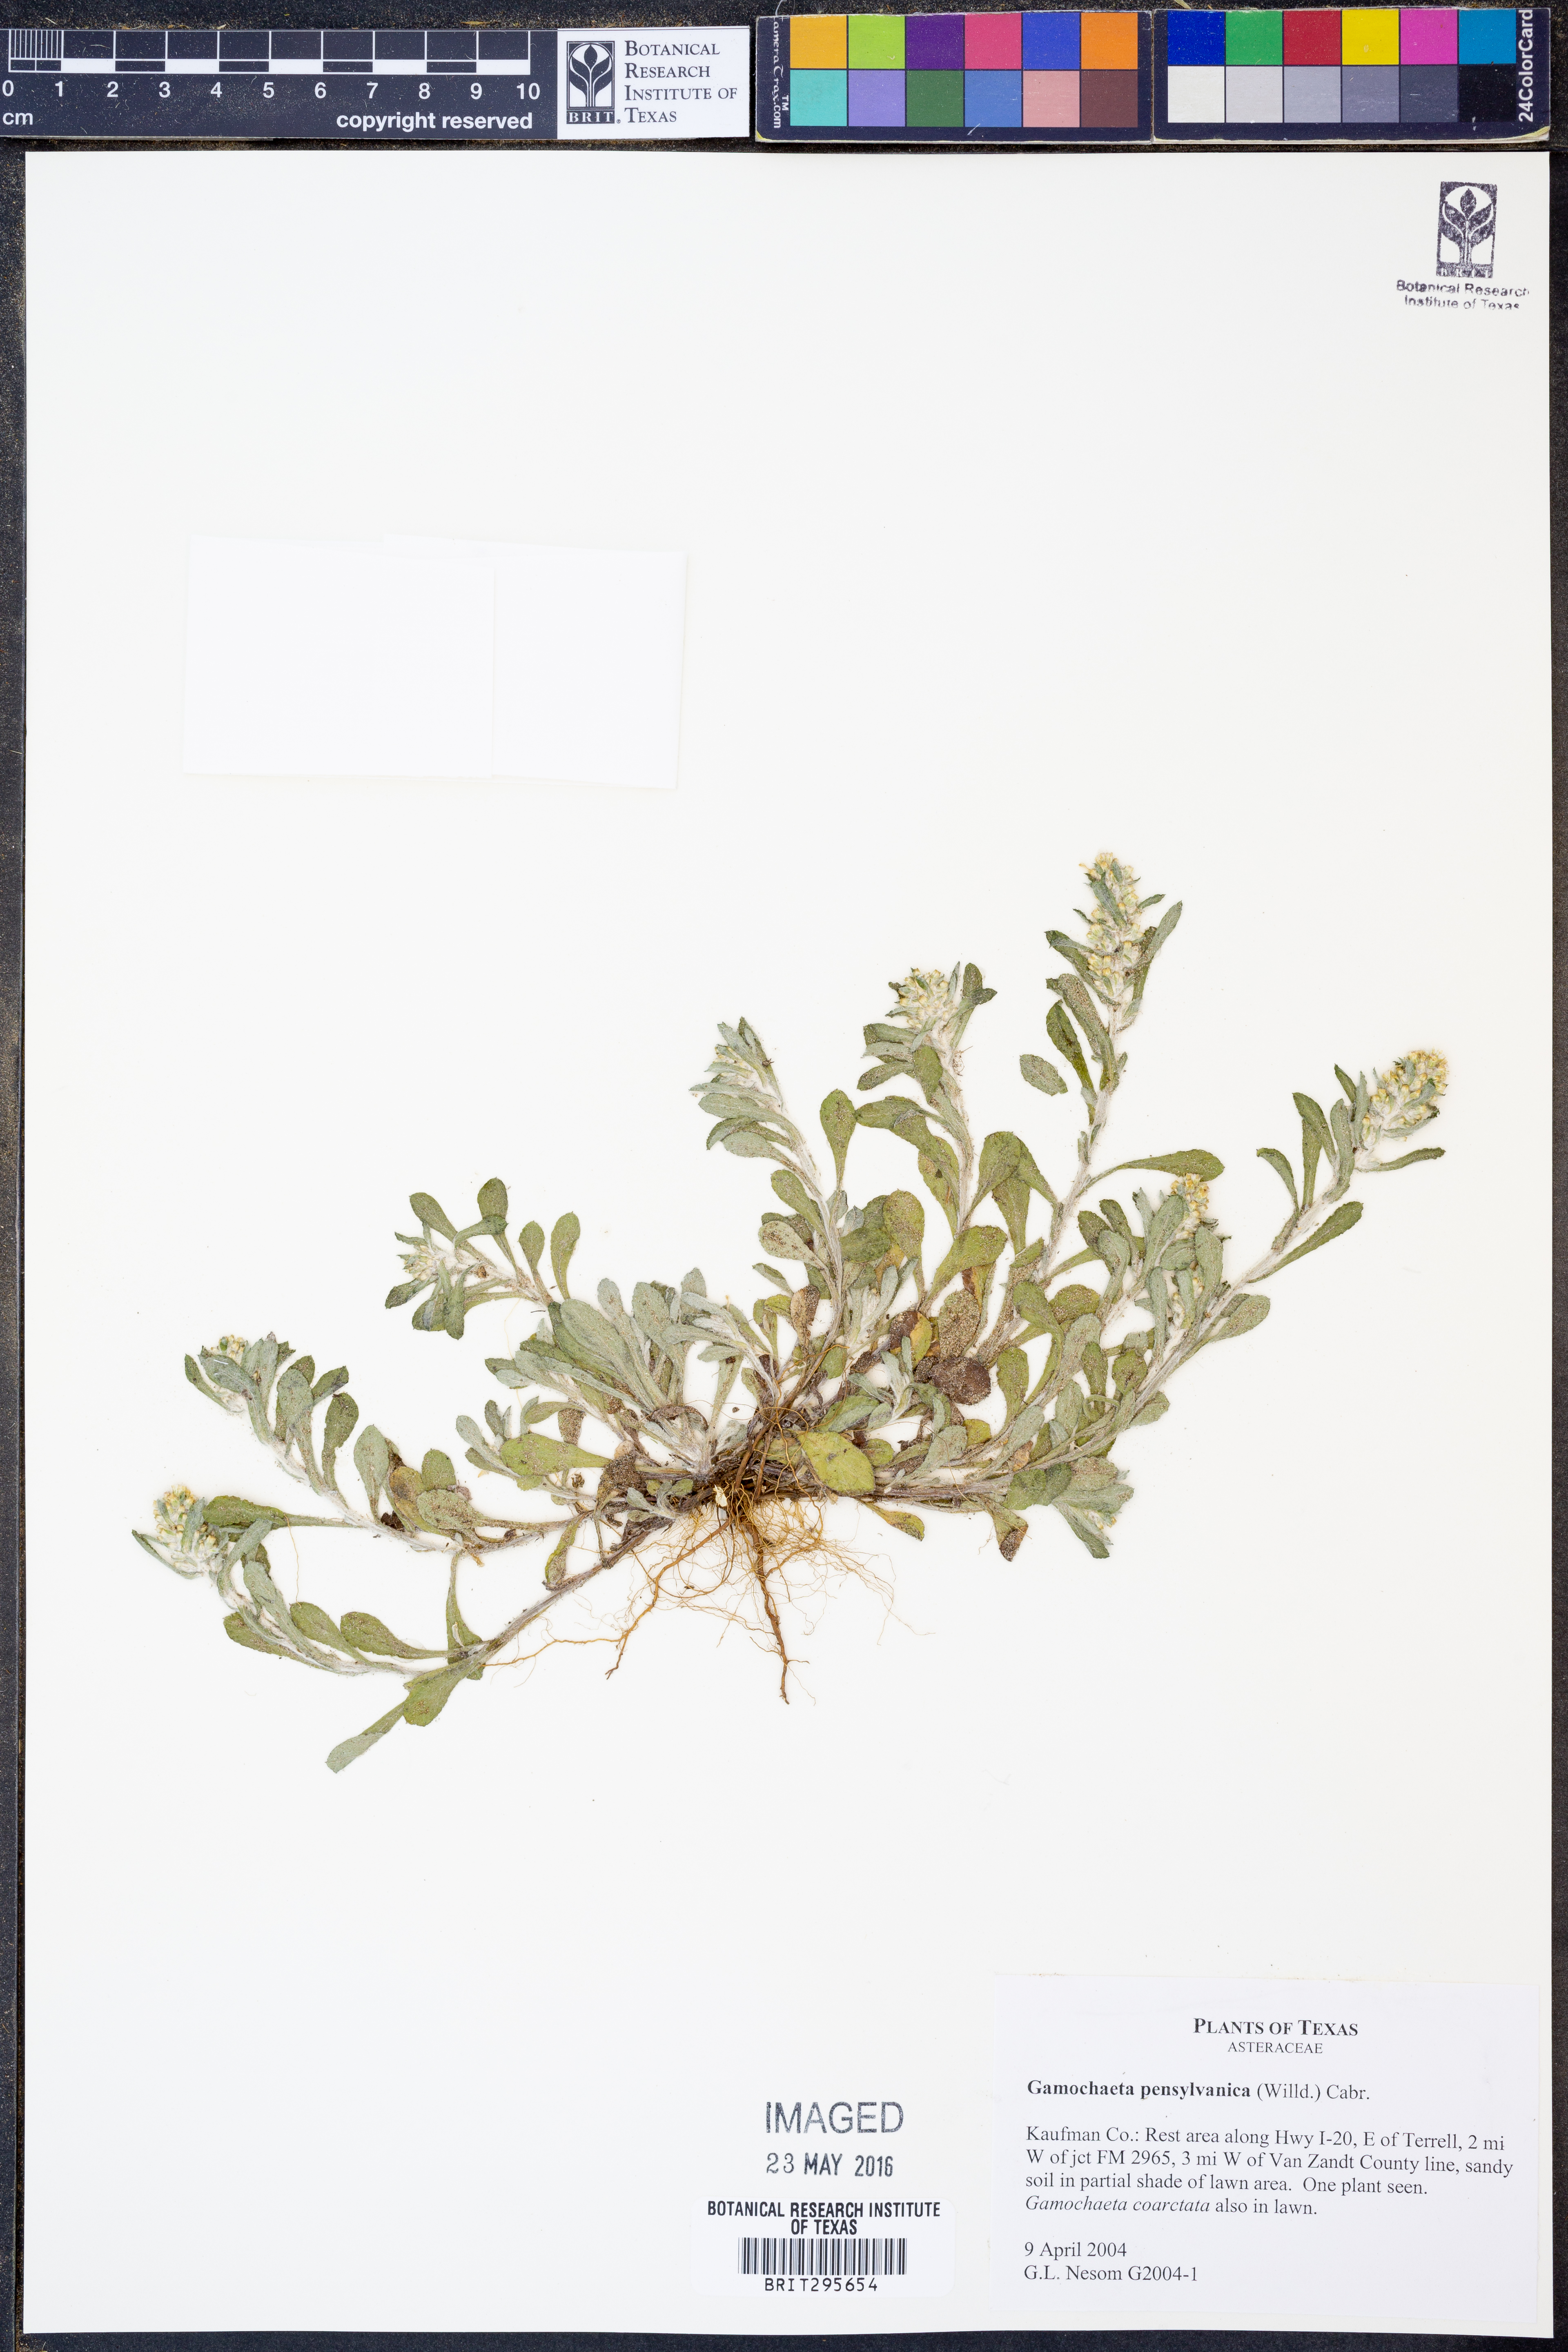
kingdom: Plantae
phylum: Tracheophyta
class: Magnoliopsida
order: Asterales
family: Asteraceae
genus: Gamochaeta
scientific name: Gamochaeta pensylvanica
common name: Pennsylvania everlasting
